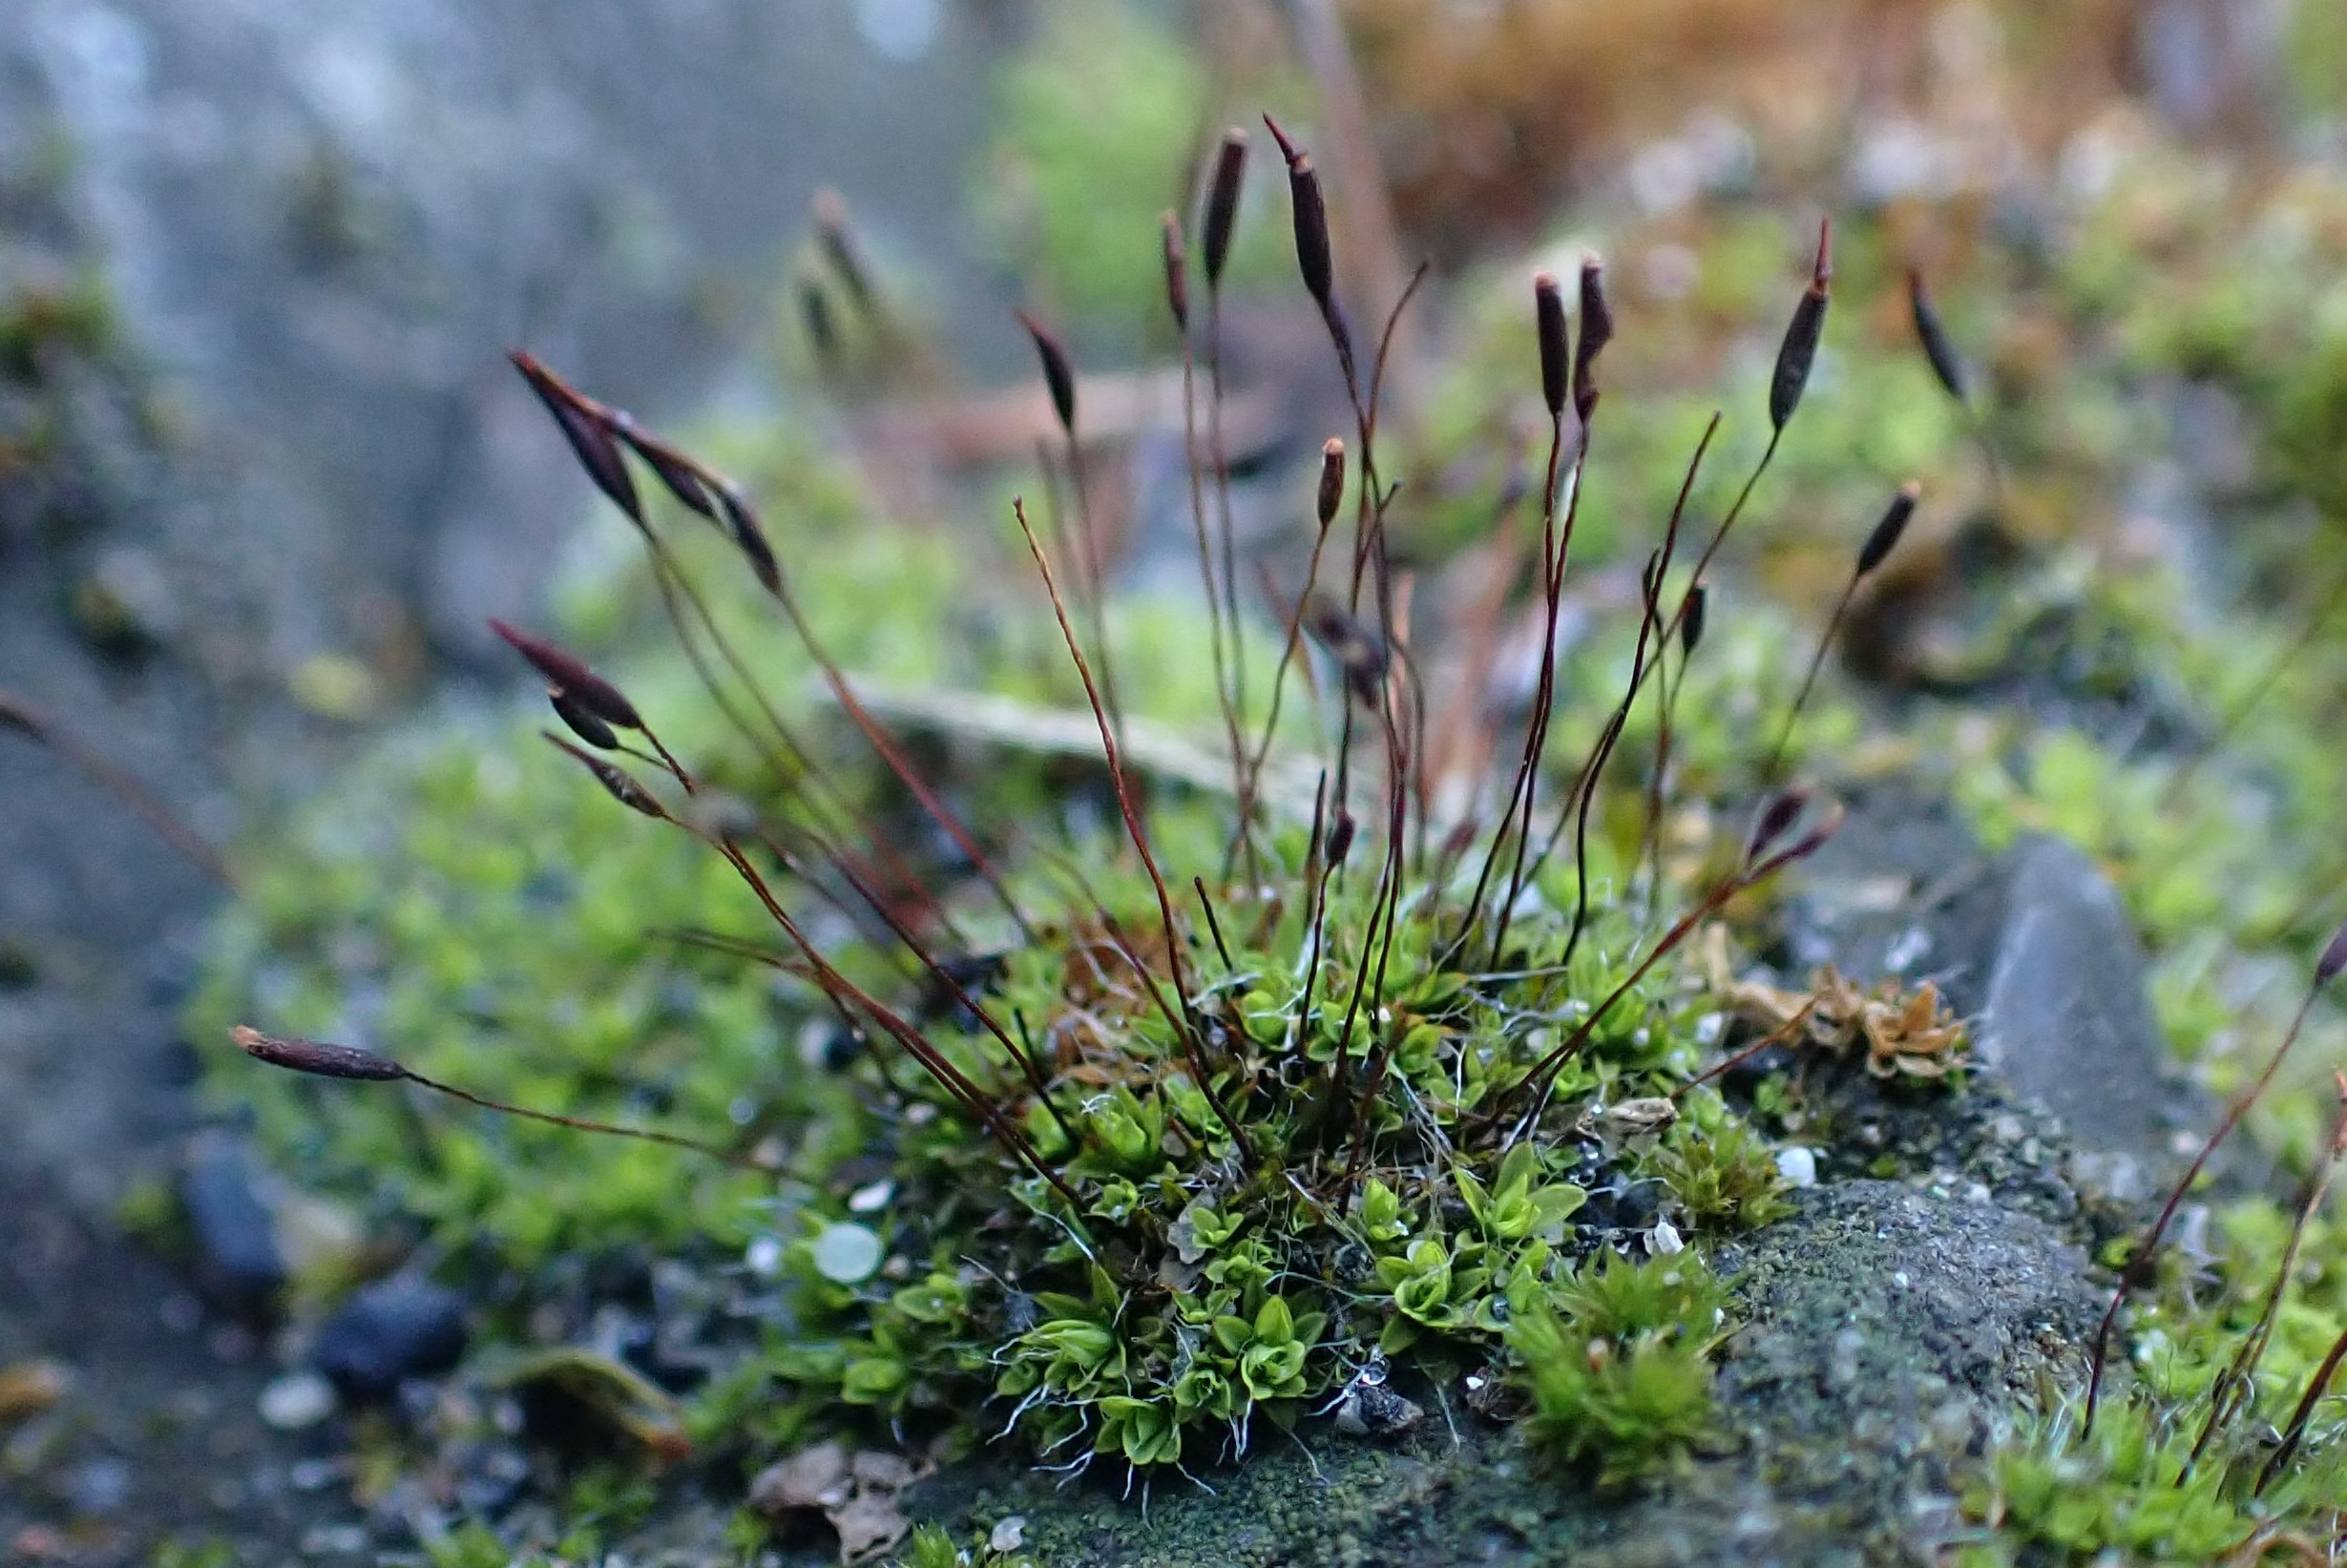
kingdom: Plantae
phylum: Bryophyta
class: Bryopsida
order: Pottiales
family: Pottiaceae
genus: Tortula
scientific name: Tortula muralis
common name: Mur-snotand
